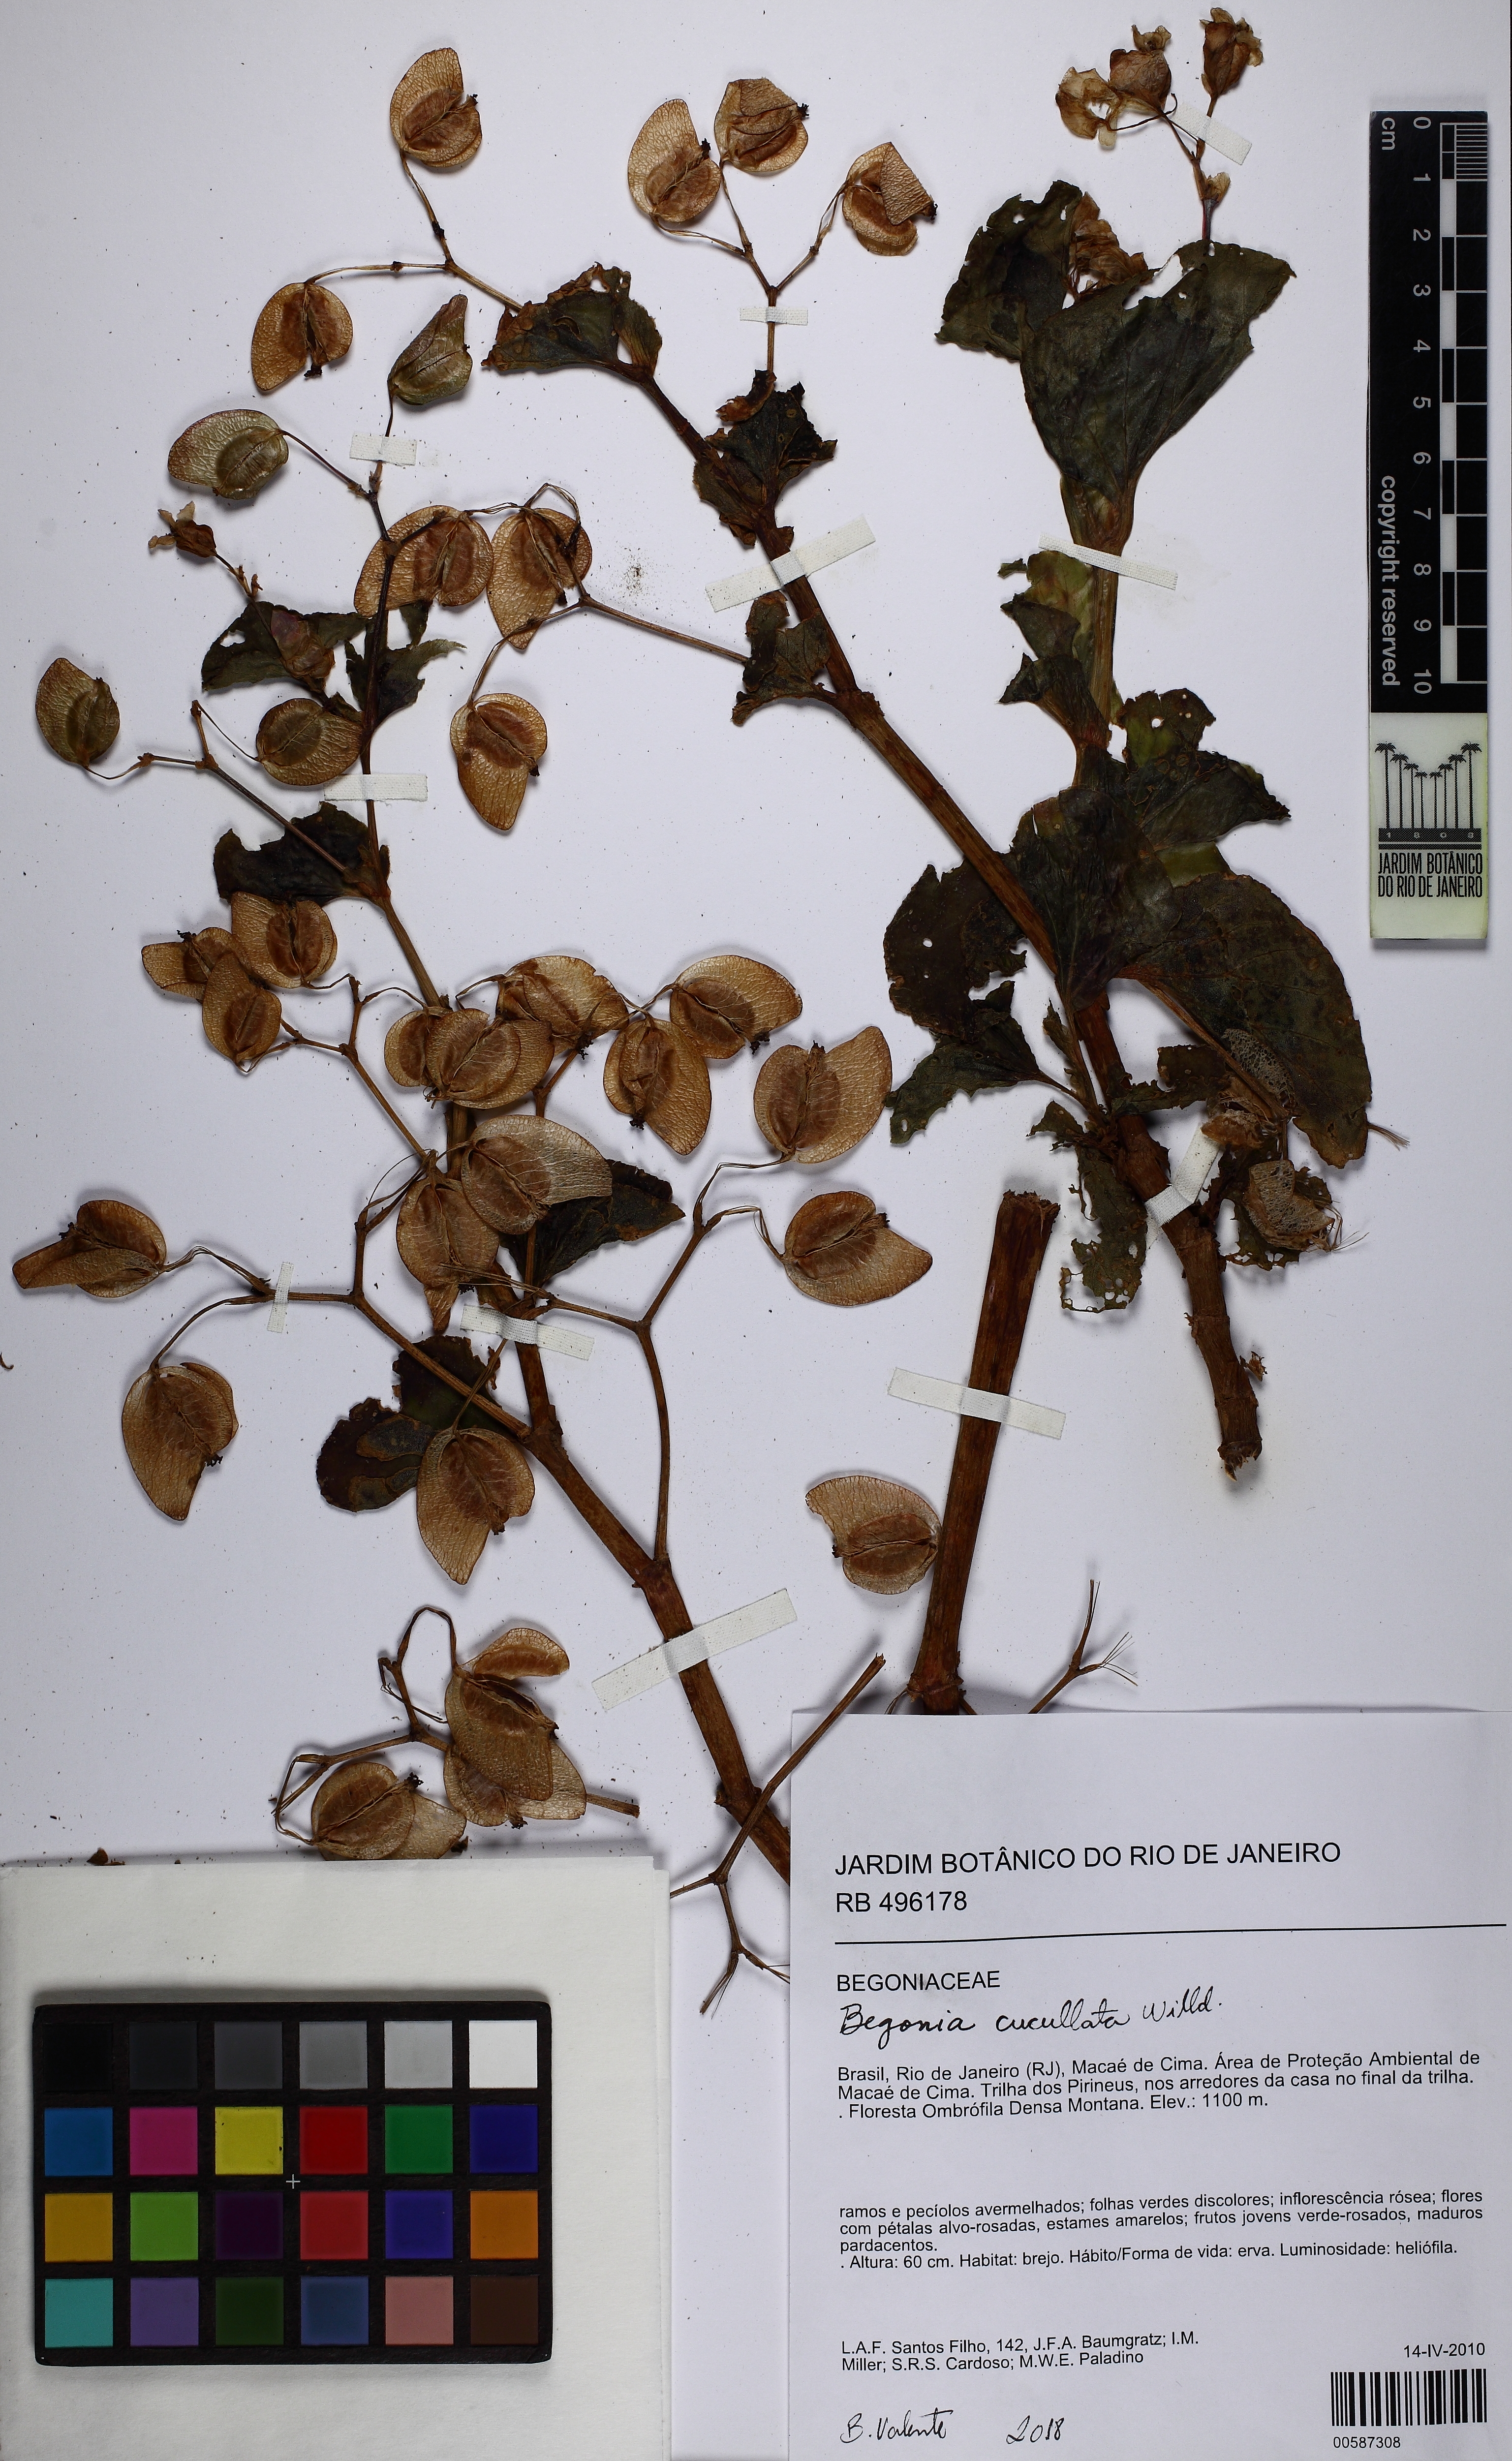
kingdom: Plantae
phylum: Tracheophyta
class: Magnoliopsida
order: Cucurbitales
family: Begoniaceae
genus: Begonia
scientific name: Begonia cucullata
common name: Clubbed begonia
